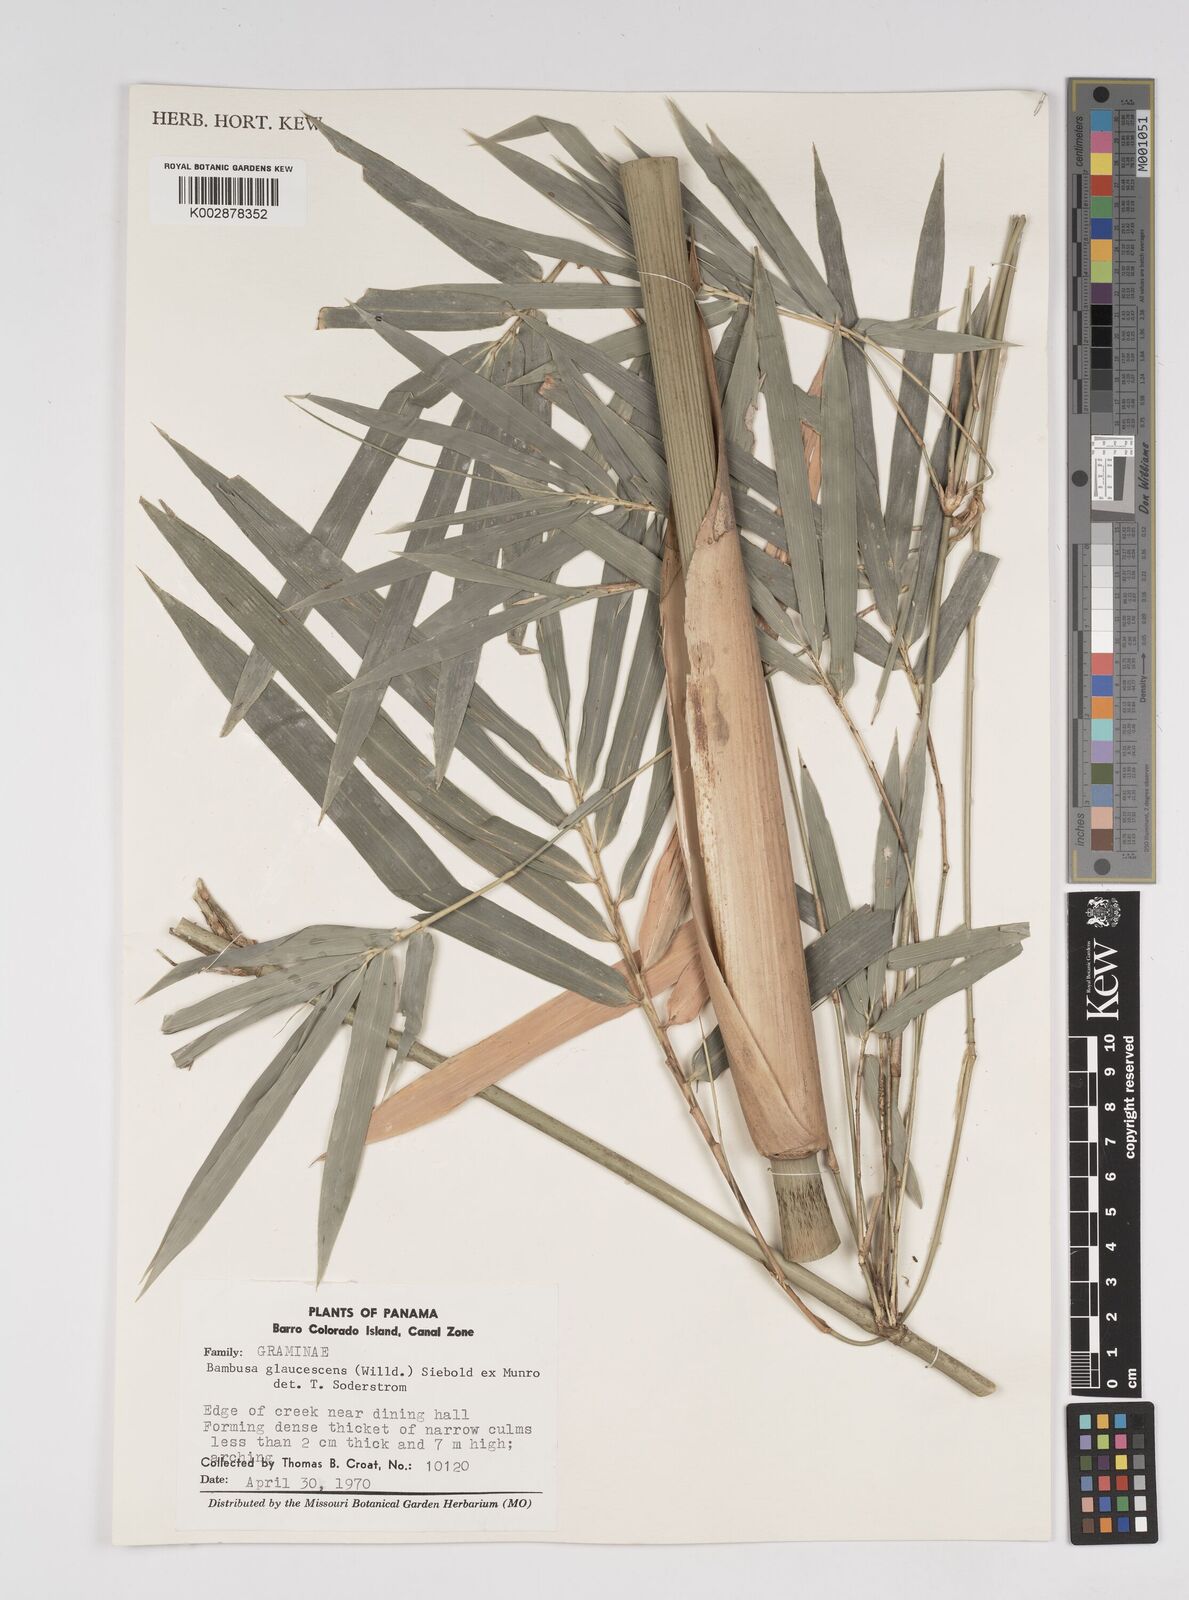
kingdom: Plantae
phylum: Tracheophyta
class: Liliopsida
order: Poales
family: Poaceae
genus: Bambusa
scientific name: Bambusa multiplex
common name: Hedge bamboo
